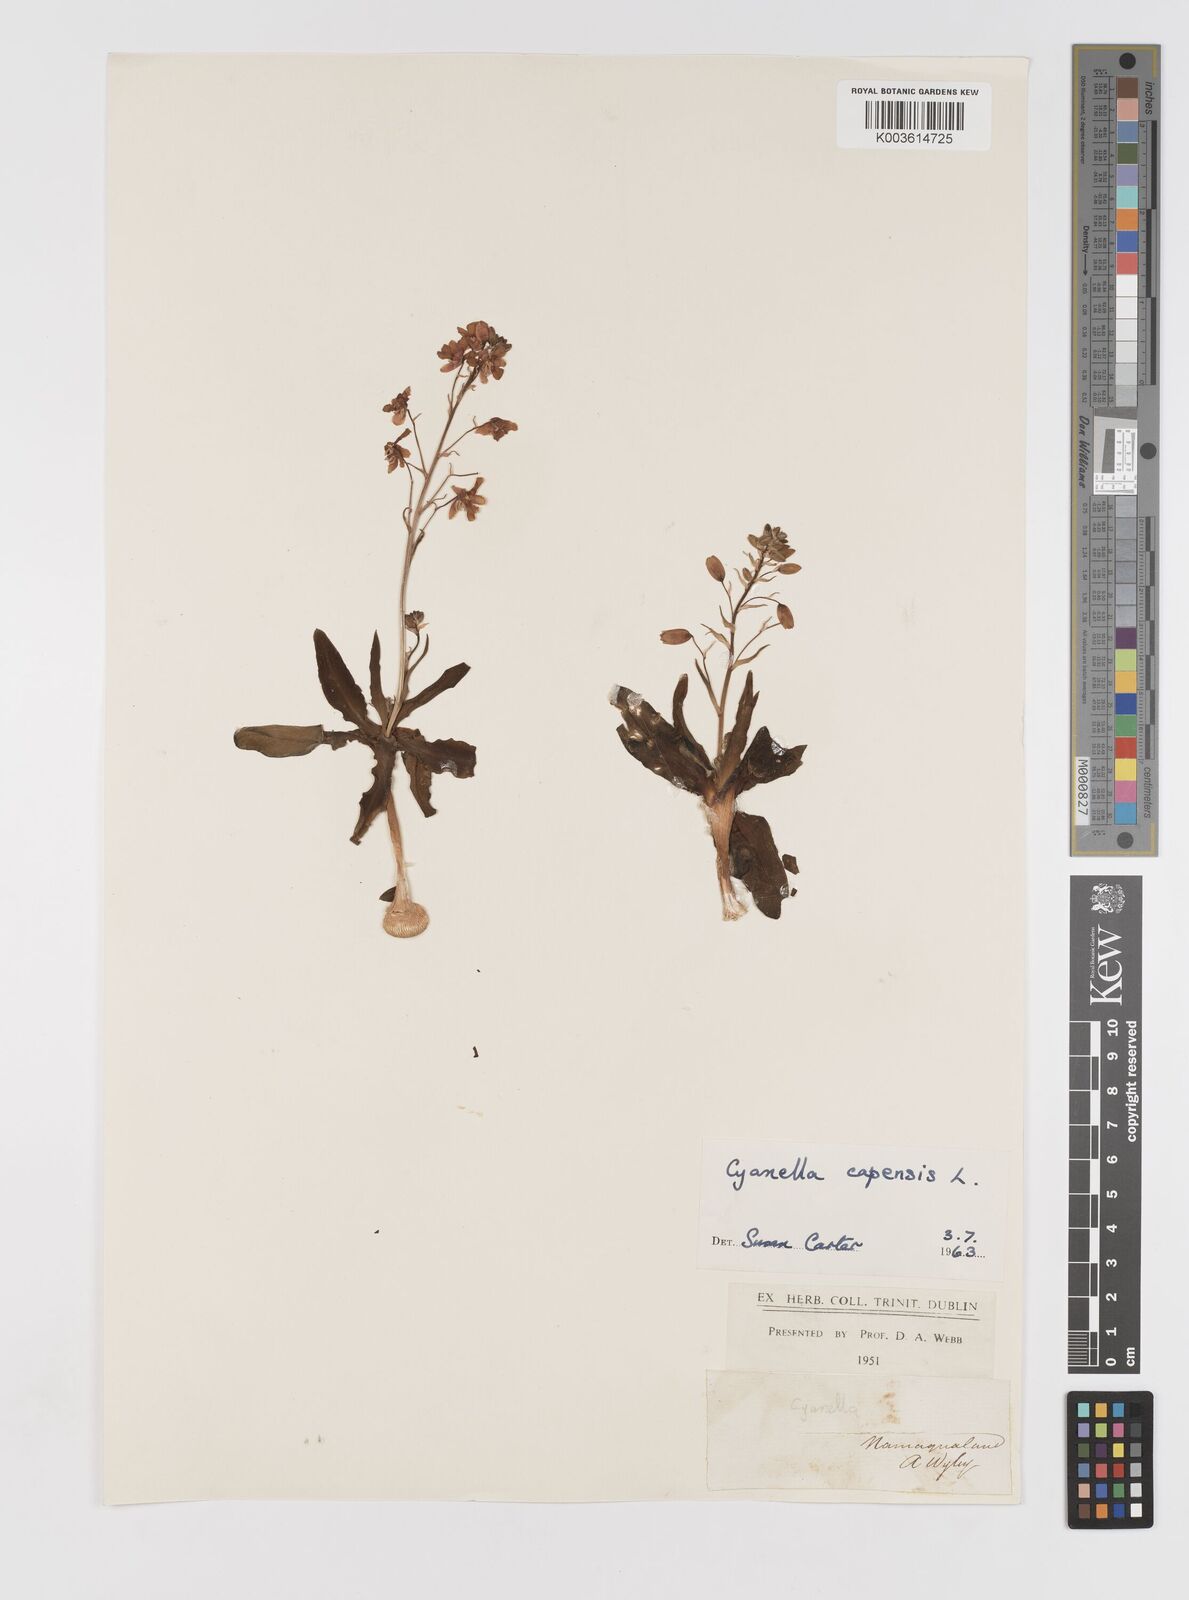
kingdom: Plantae
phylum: Tracheophyta
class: Liliopsida
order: Asparagales
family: Tecophilaeaceae
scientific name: Tecophilaeaceae
